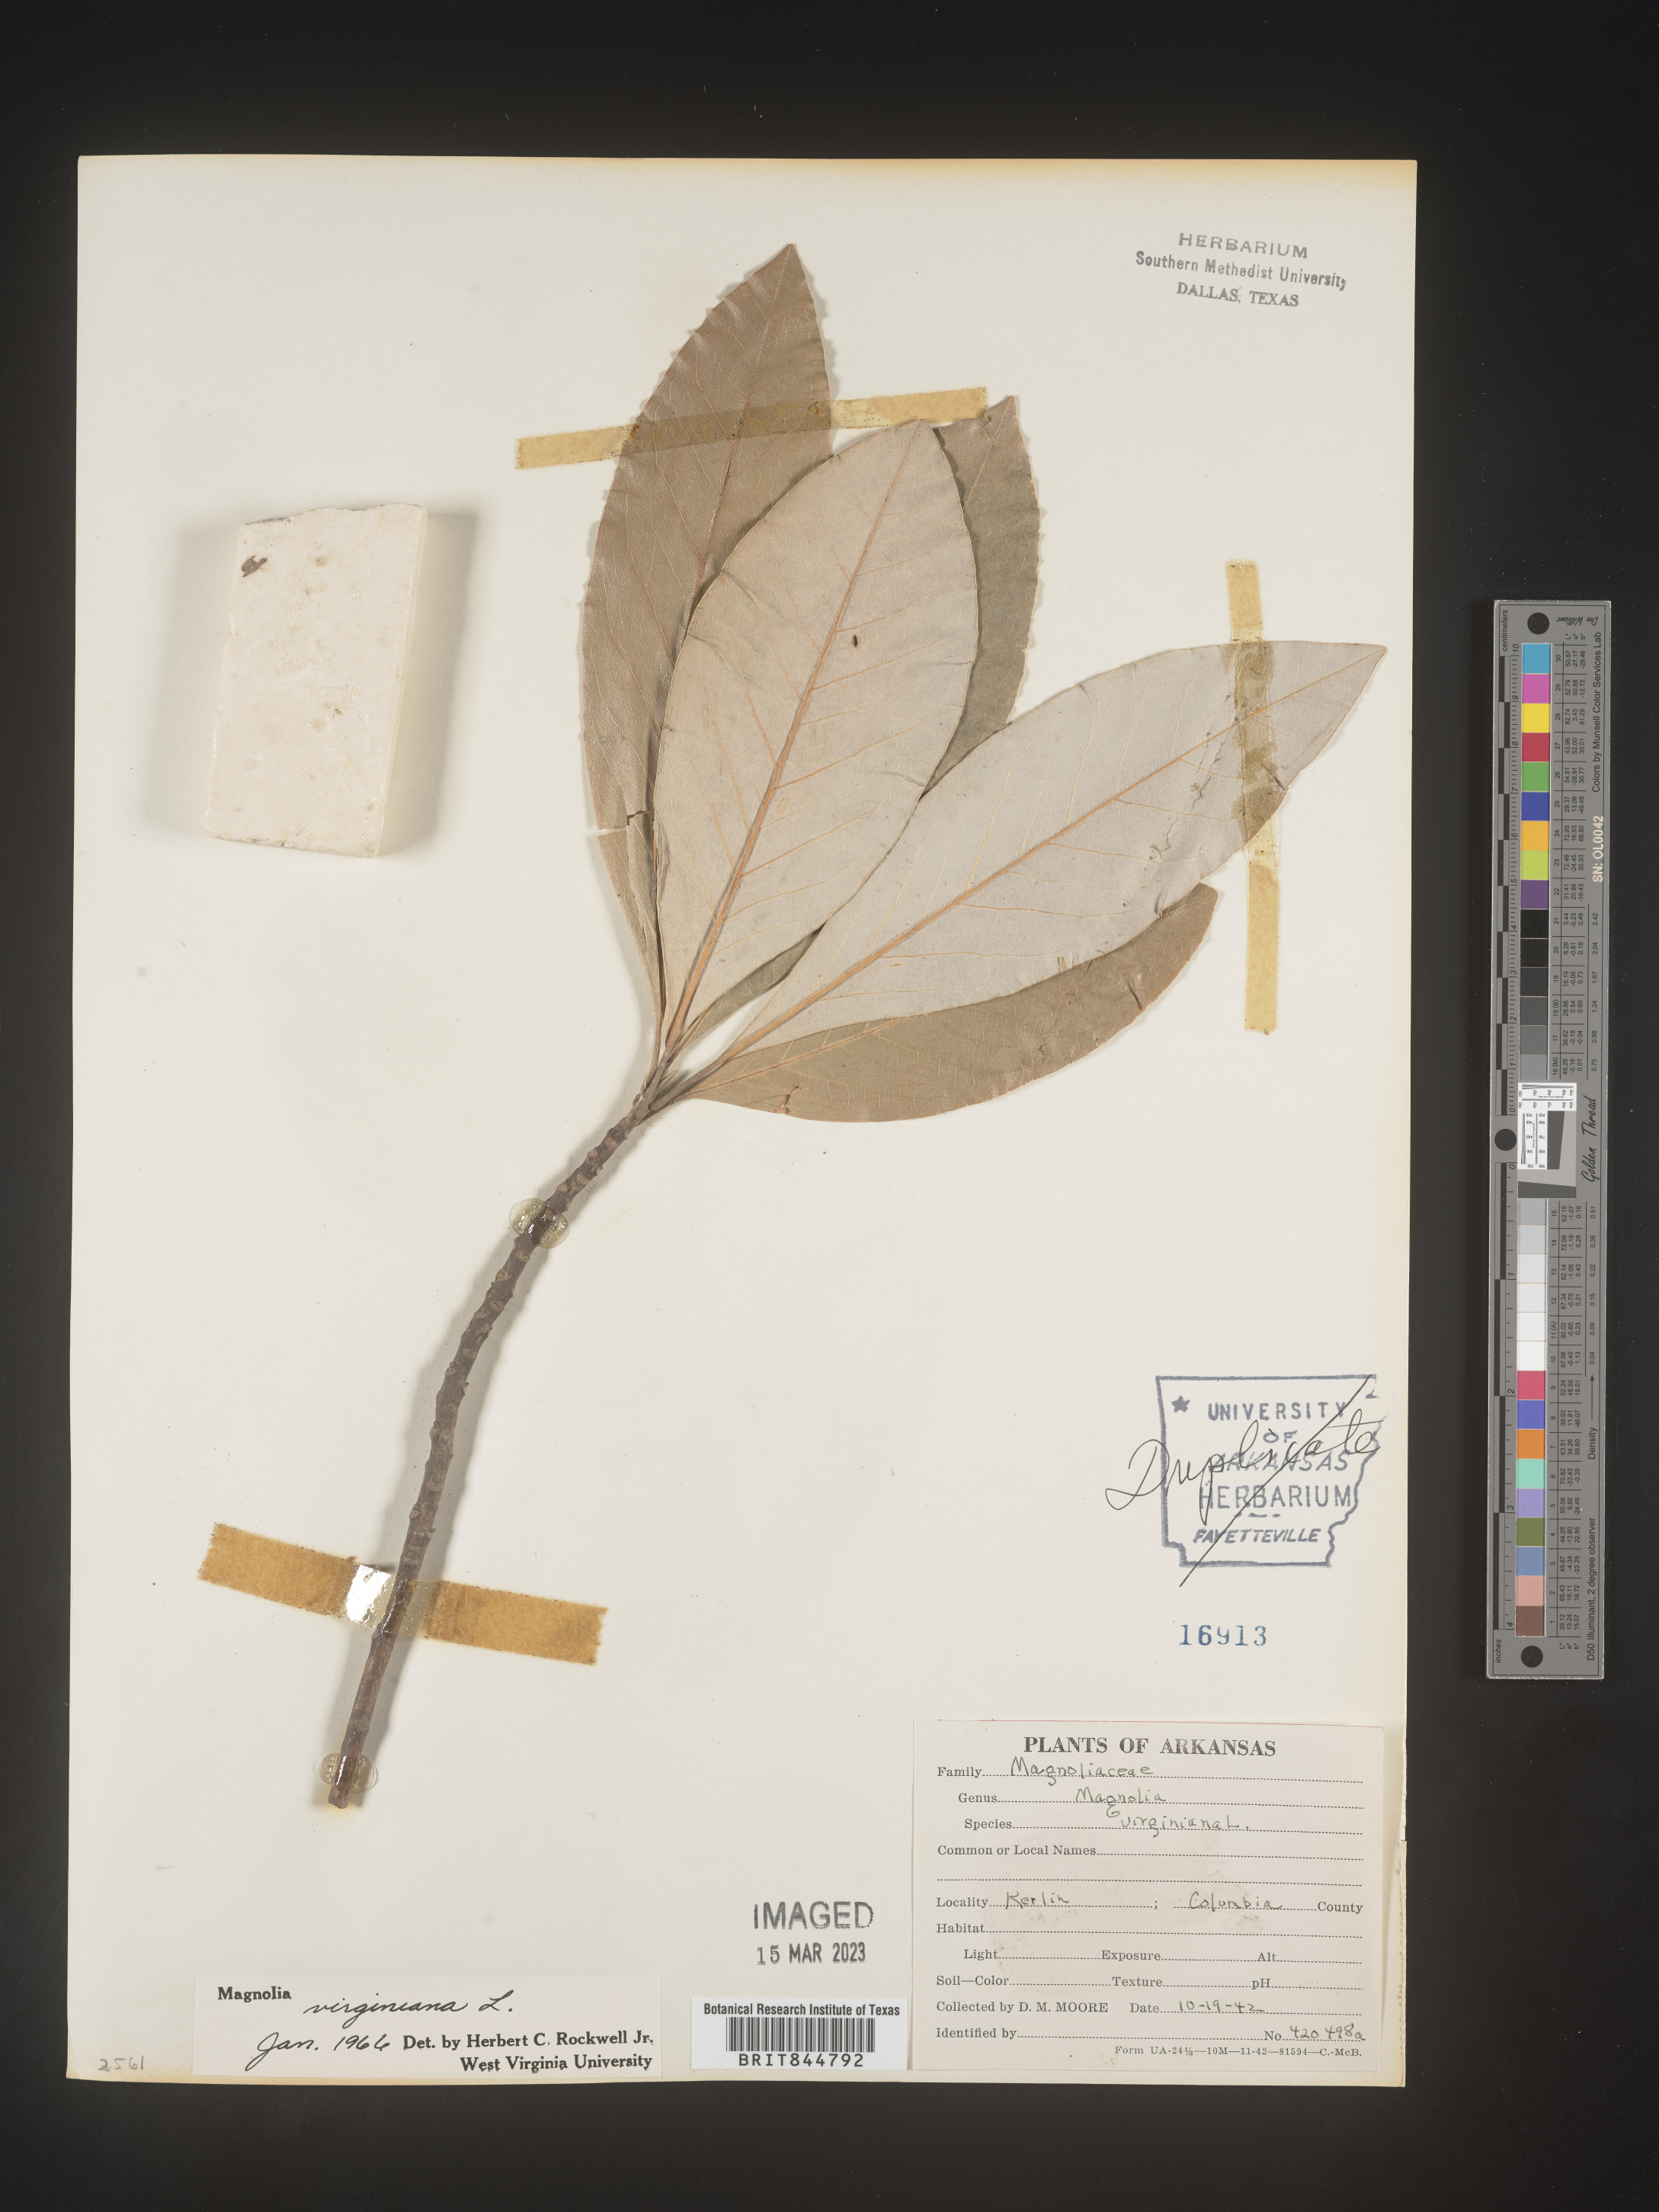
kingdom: Plantae
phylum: Tracheophyta
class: Magnoliopsida
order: Magnoliales
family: Magnoliaceae
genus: Magnolia
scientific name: Magnolia virginiana
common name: Swamp bay
